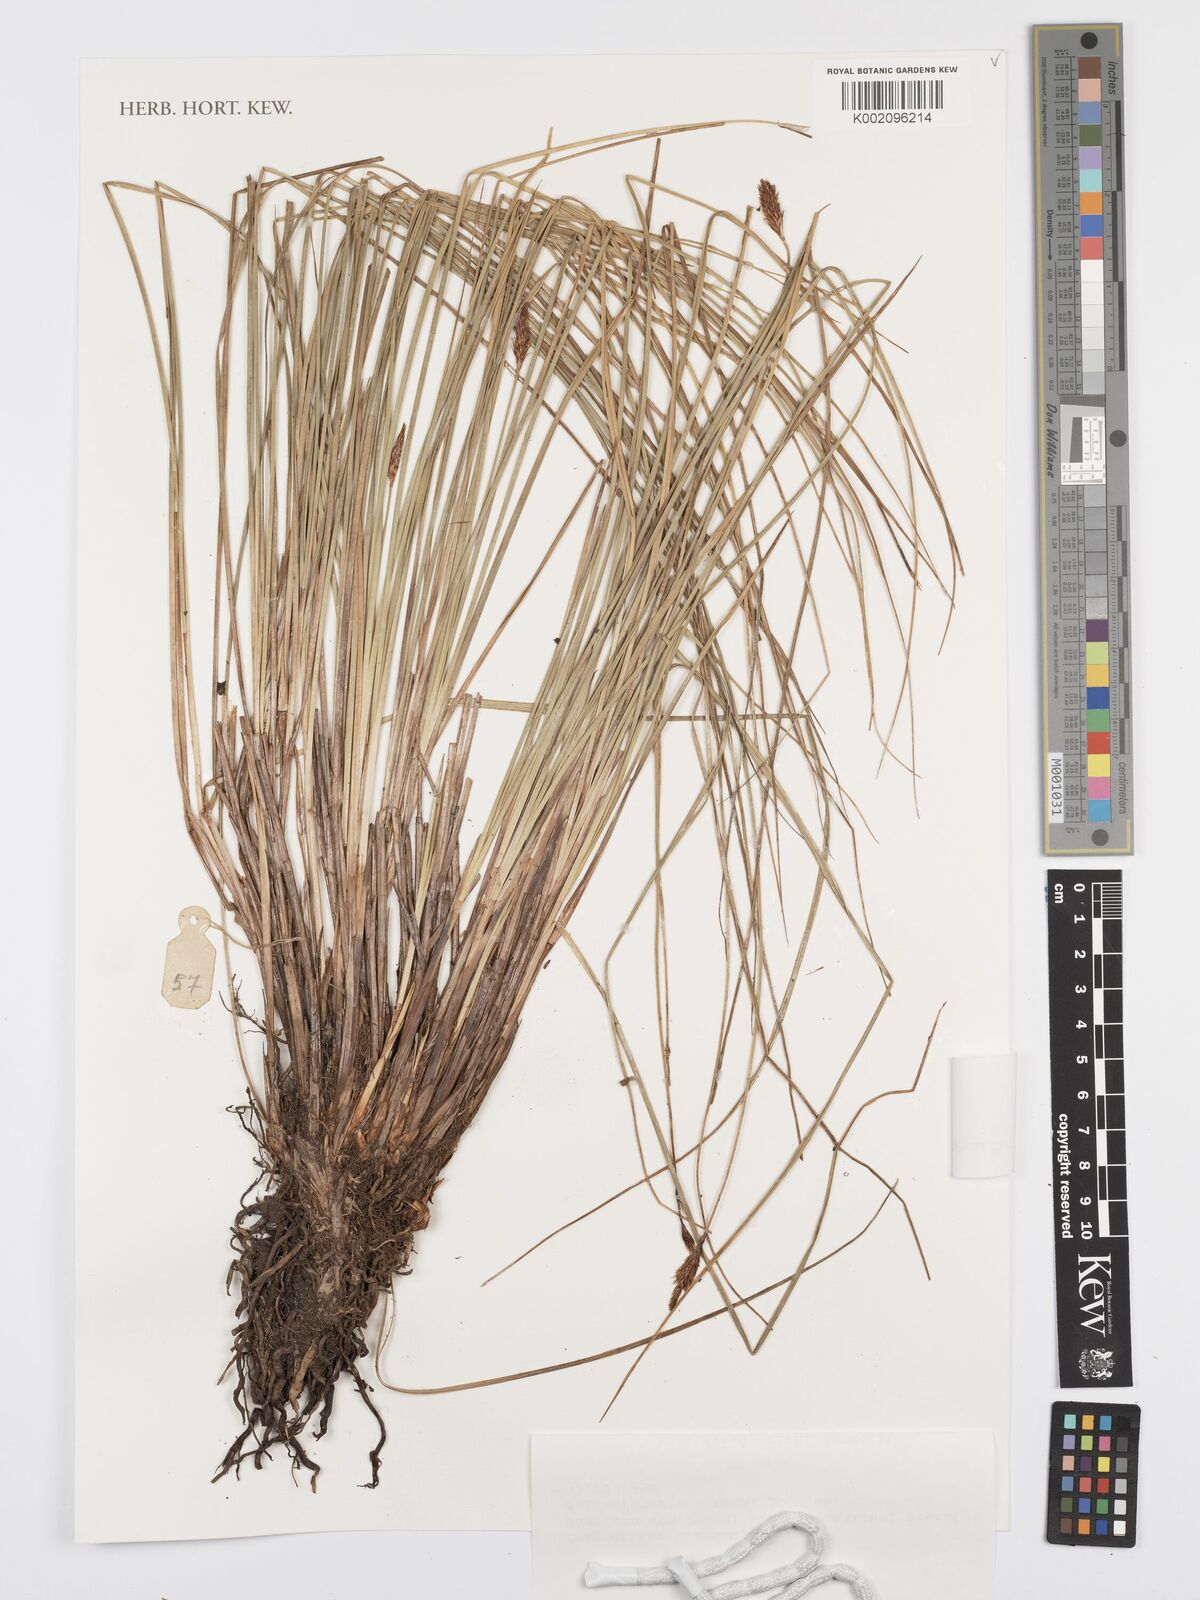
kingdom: Plantae
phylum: Tracheophyta
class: Liliopsida
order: Poales
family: Cyperaceae
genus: Carex
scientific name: Carex
